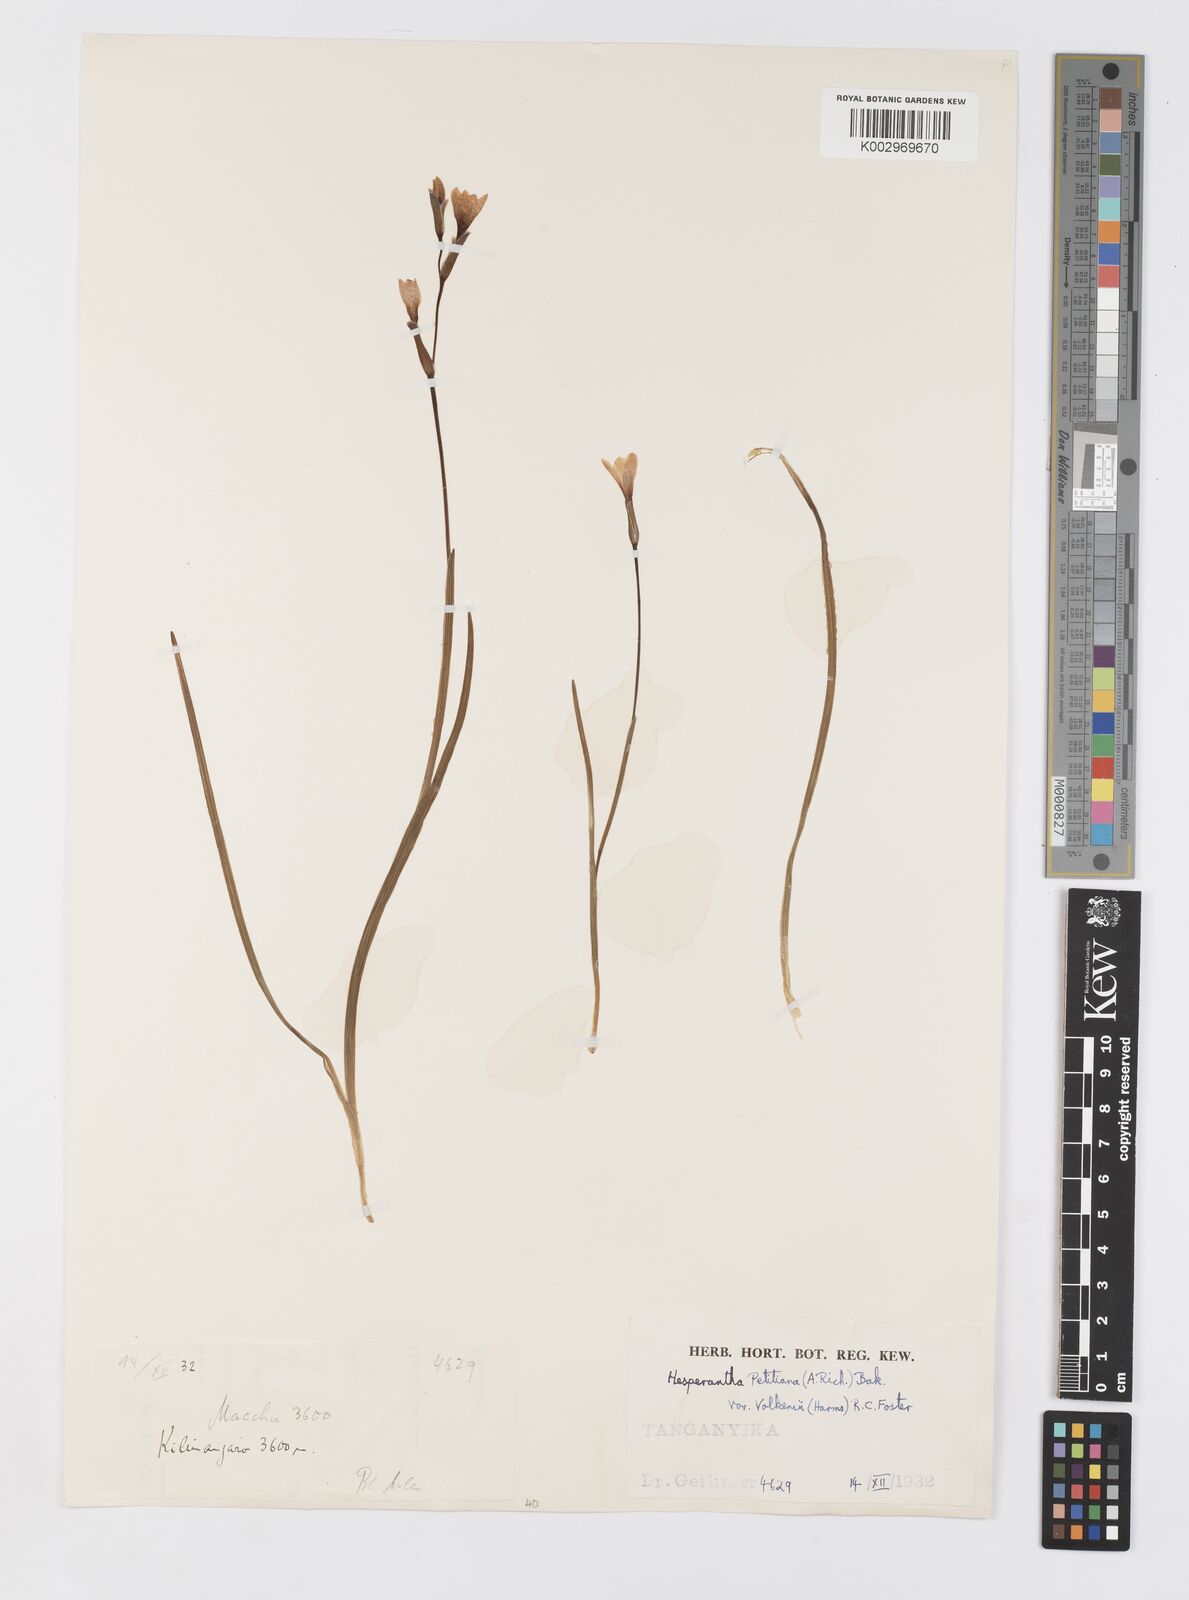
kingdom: Plantae
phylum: Tracheophyta
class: Liliopsida
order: Asparagales
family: Iridaceae
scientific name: Iridaceae
